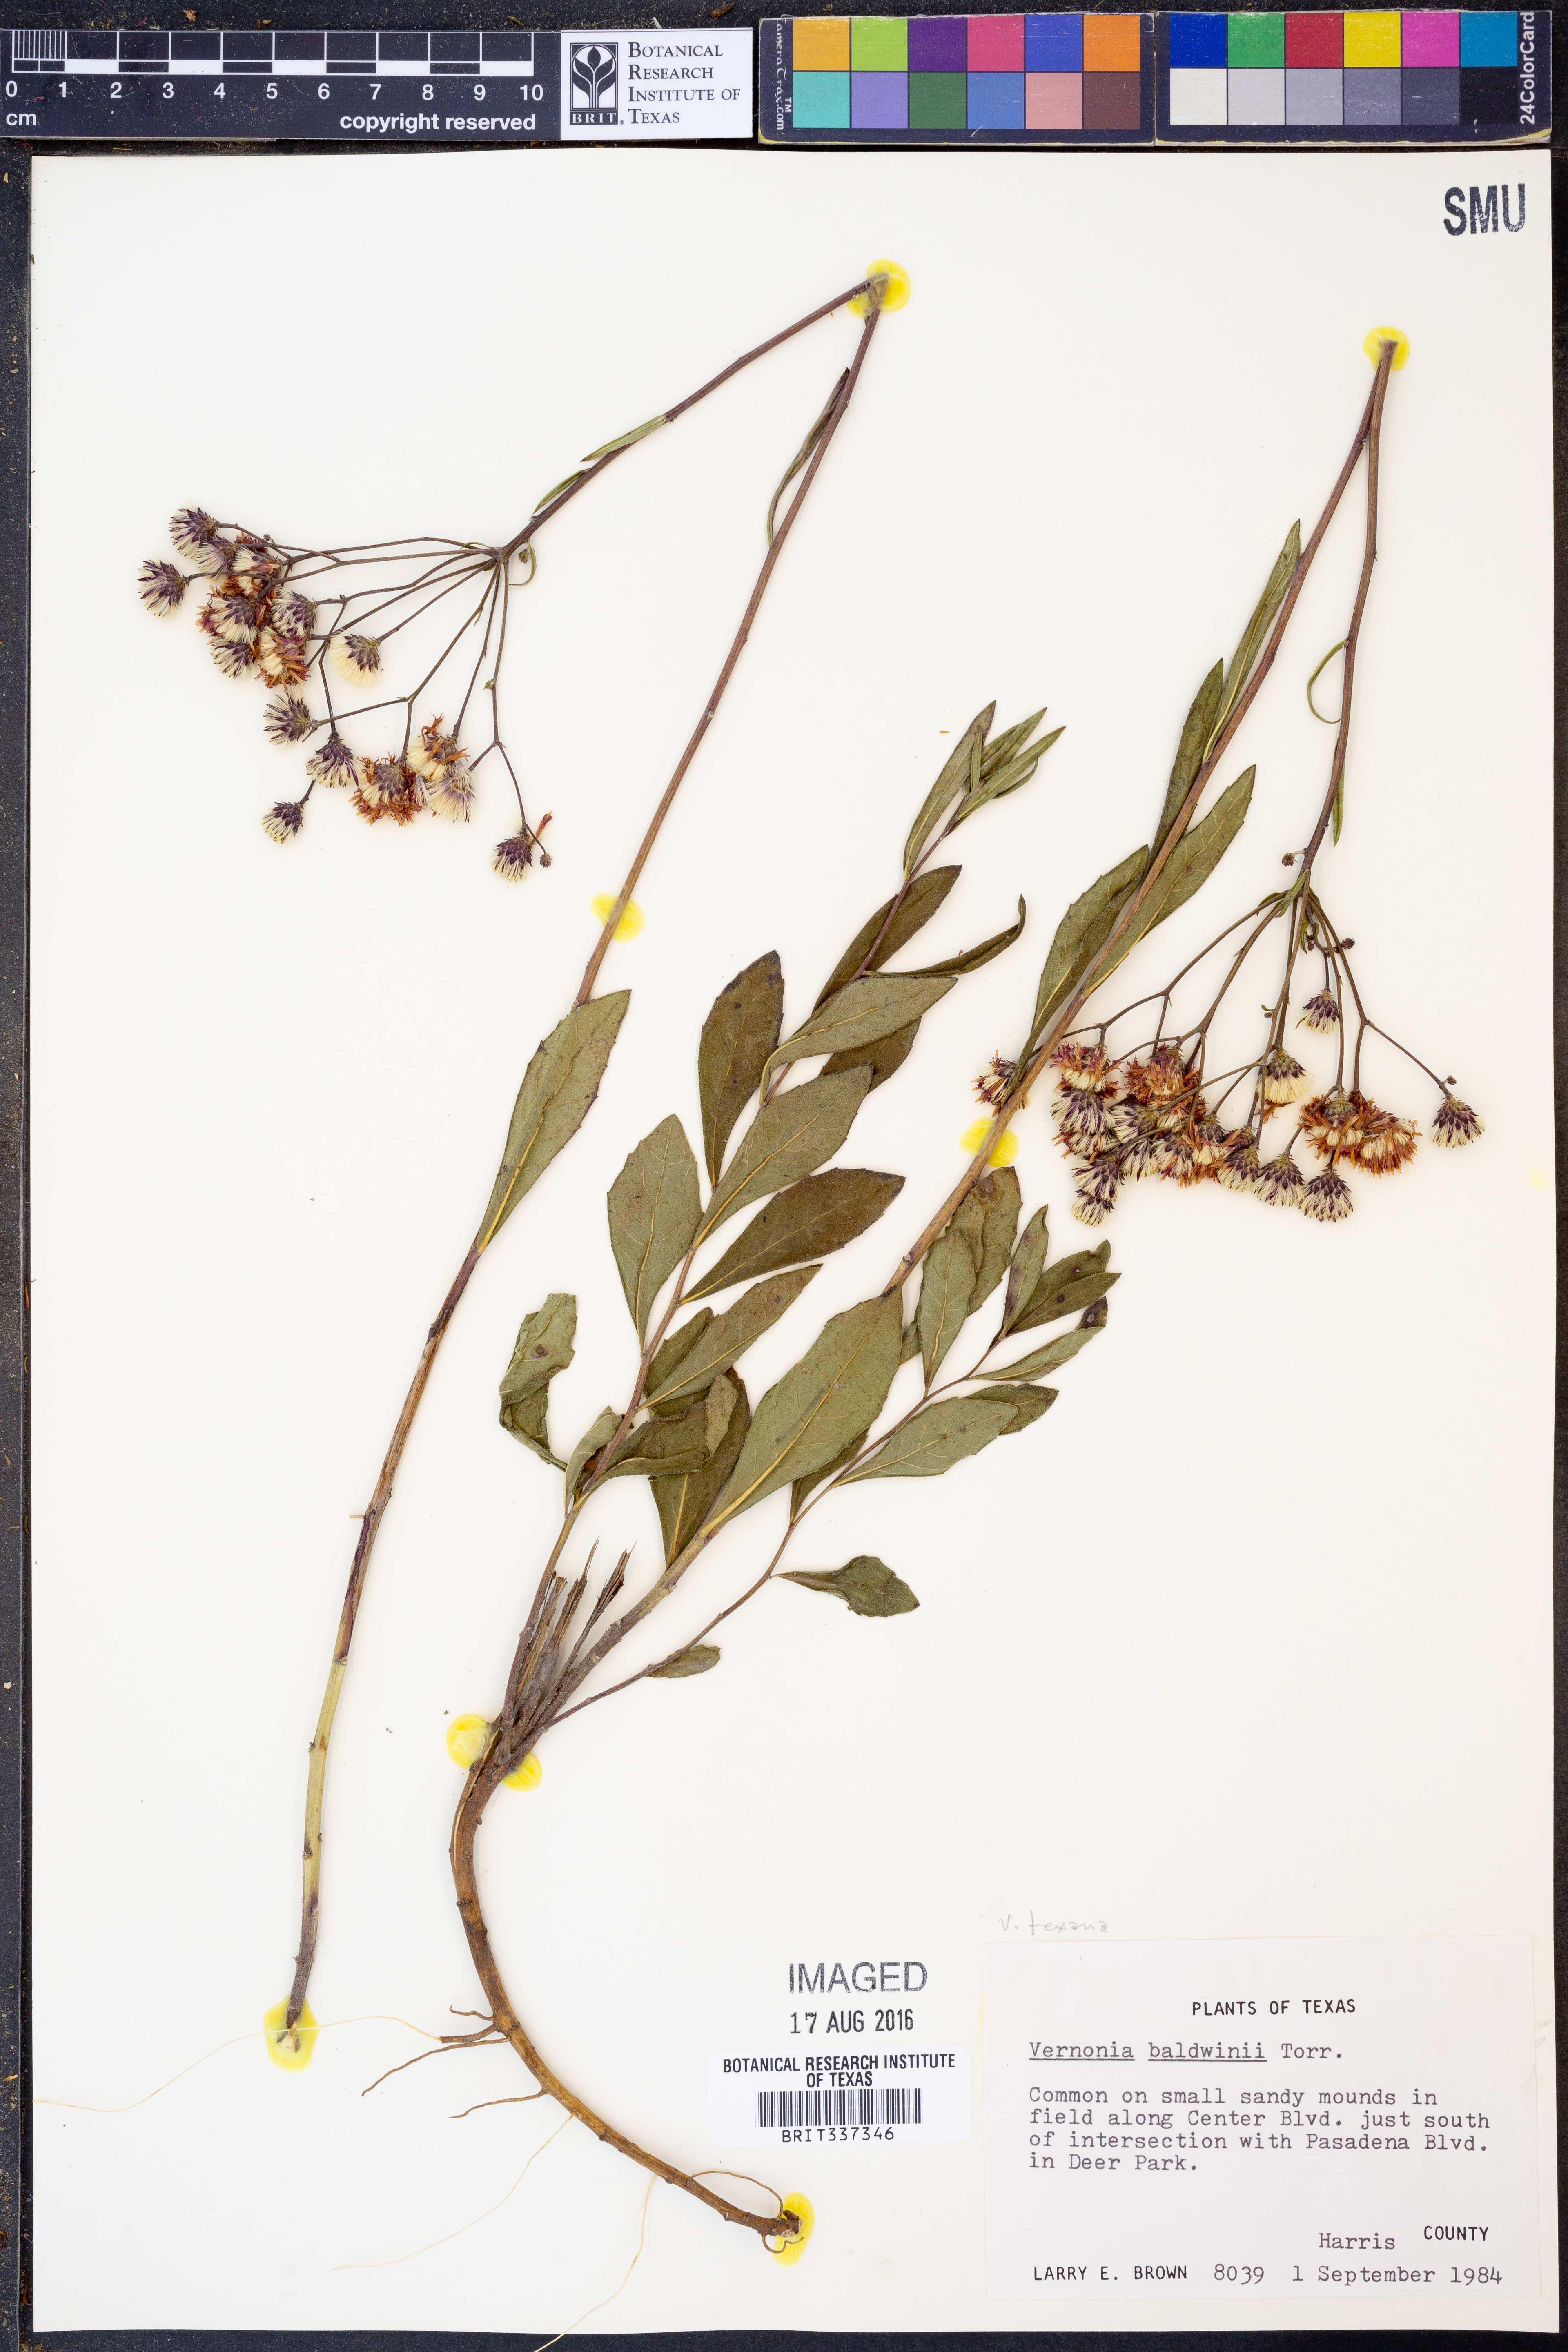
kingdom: Plantae
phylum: Tracheophyta
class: Magnoliopsida
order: Asterales
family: Asteraceae
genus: Vernonia
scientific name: Vernonia texana
